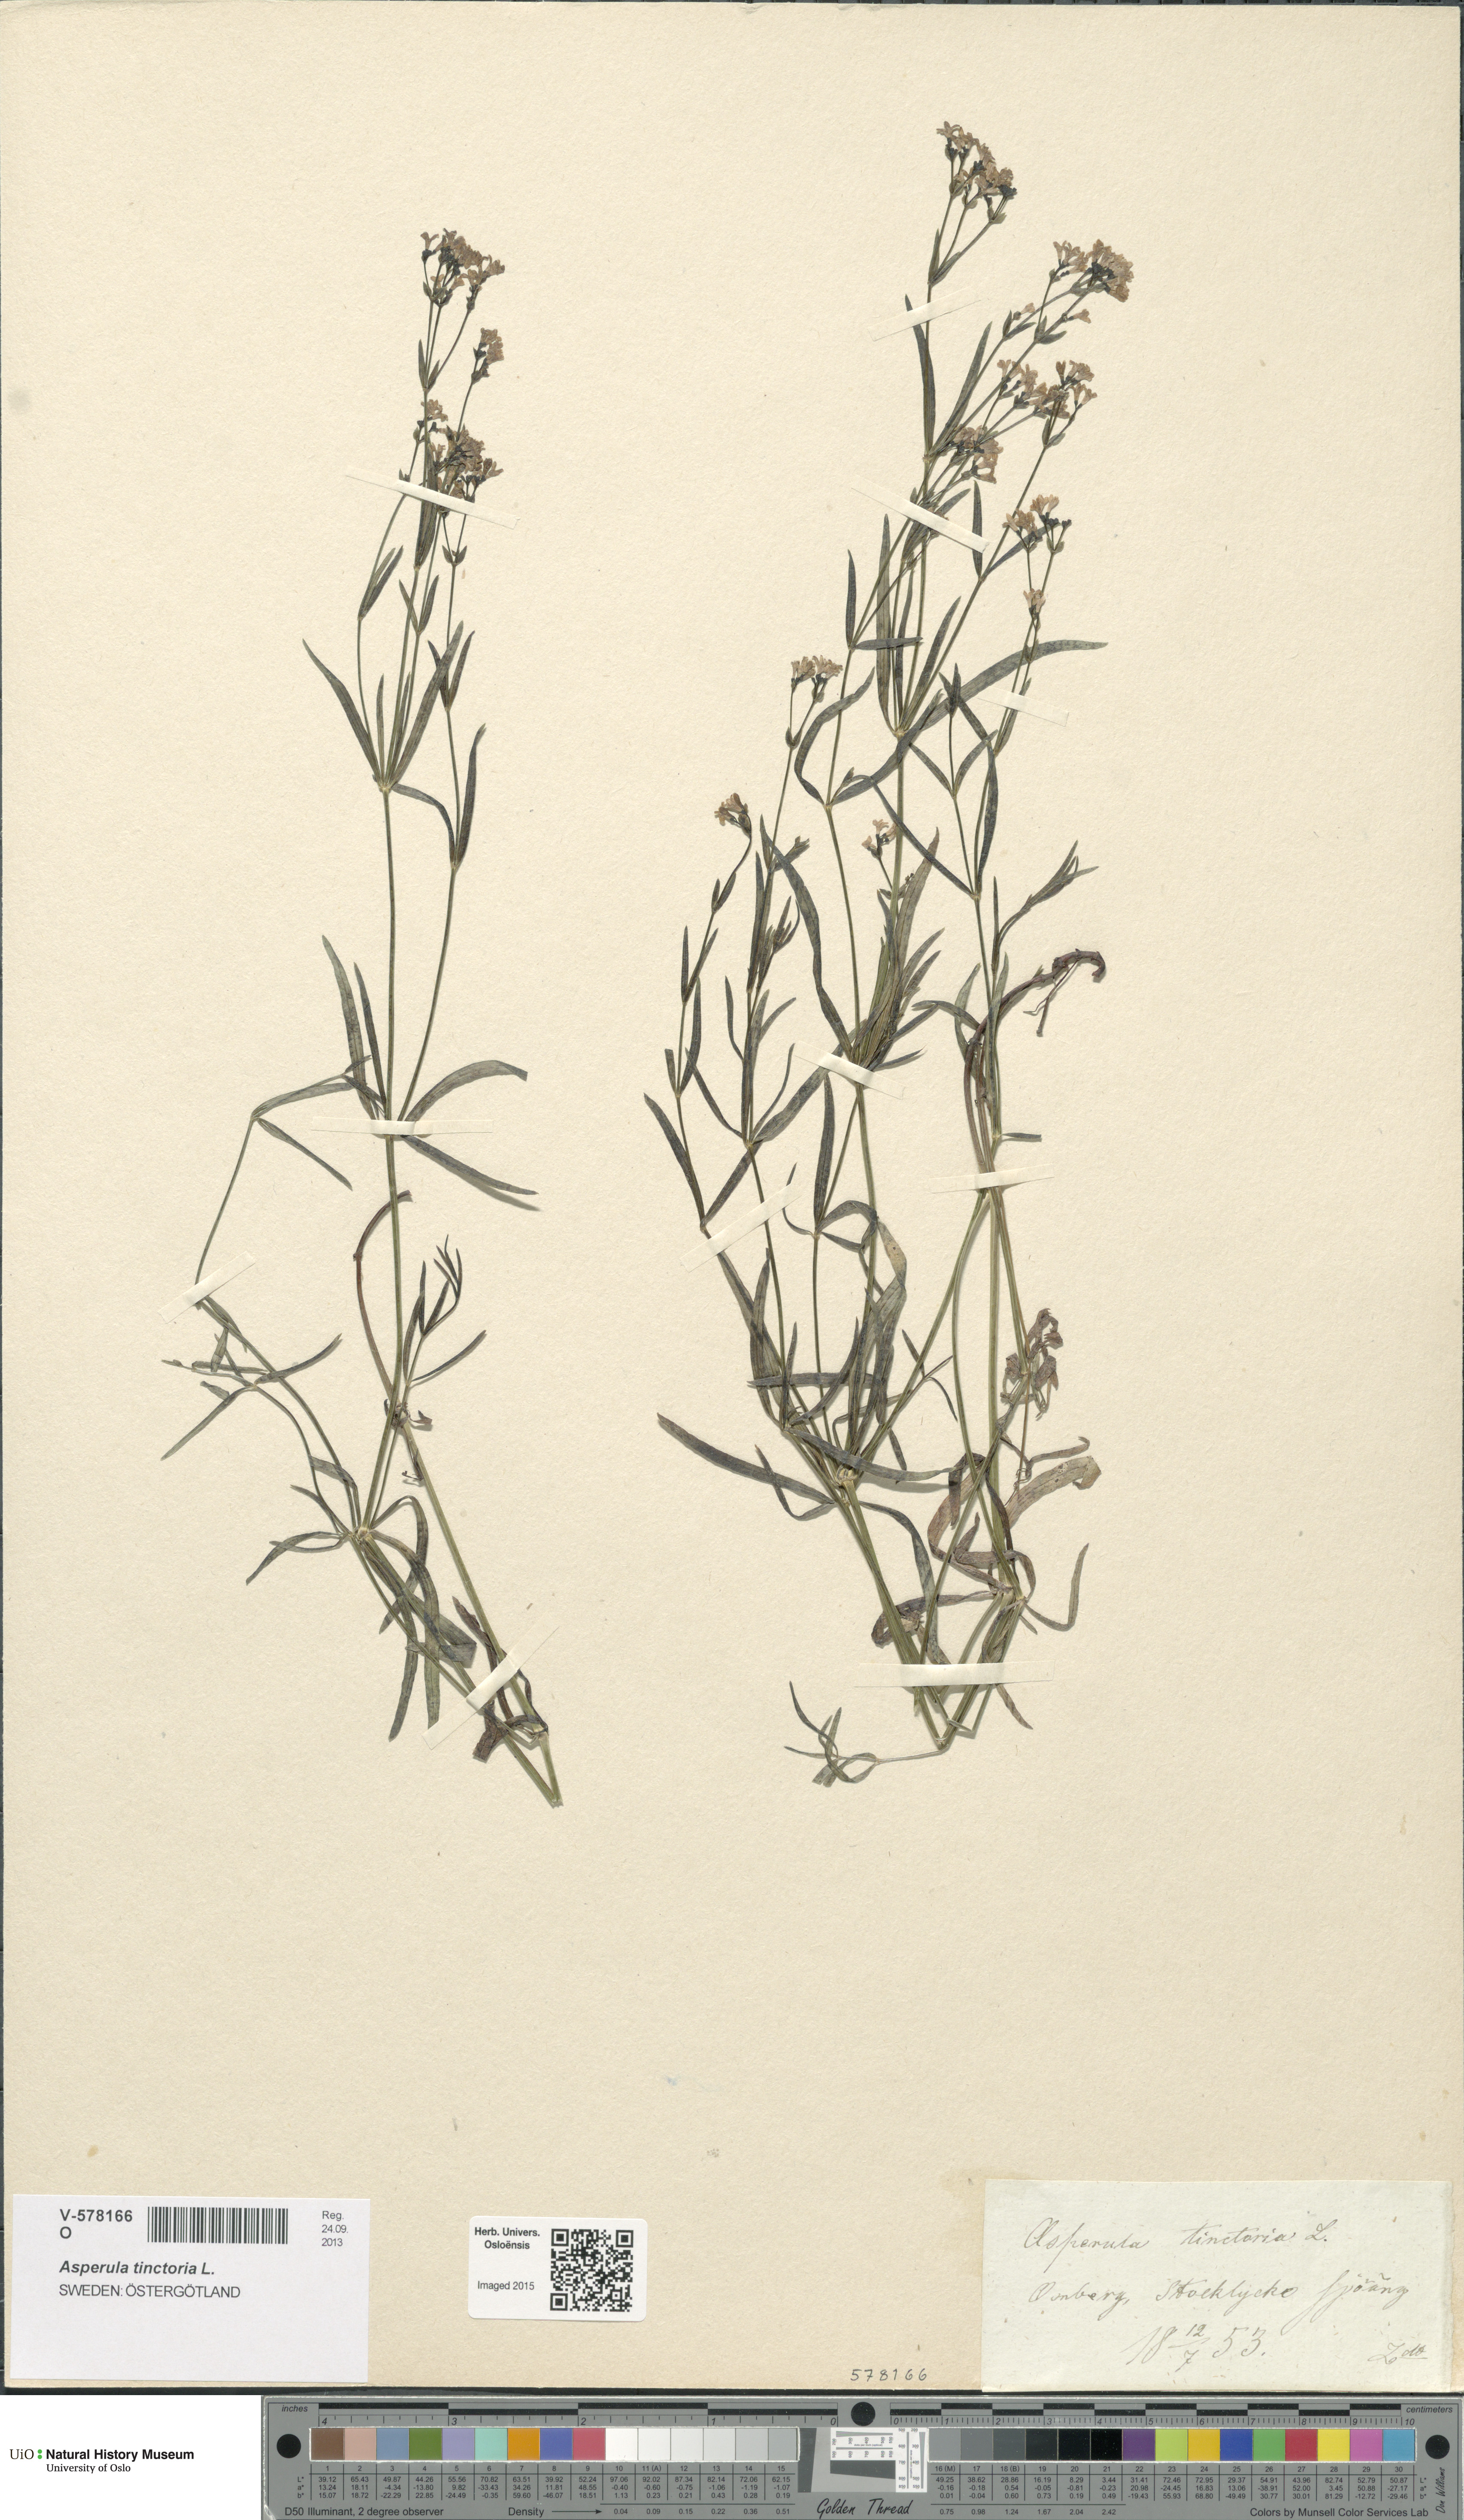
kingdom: Plantae
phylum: Tracheophyta
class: Magnoliopsida
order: Gentianales
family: Rubiaceae
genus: Asperula
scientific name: Asperula tinctoria
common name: Dyer's woodruff
